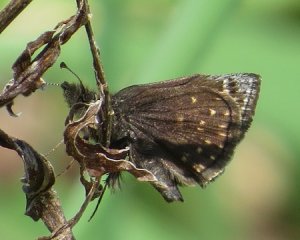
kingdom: Animalia
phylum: Arthropoda
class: Insecta
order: Lepidoptera
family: Hesperiidae
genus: Erynnis
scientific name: Erynnis icelus
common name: Dreamy Duskywing
